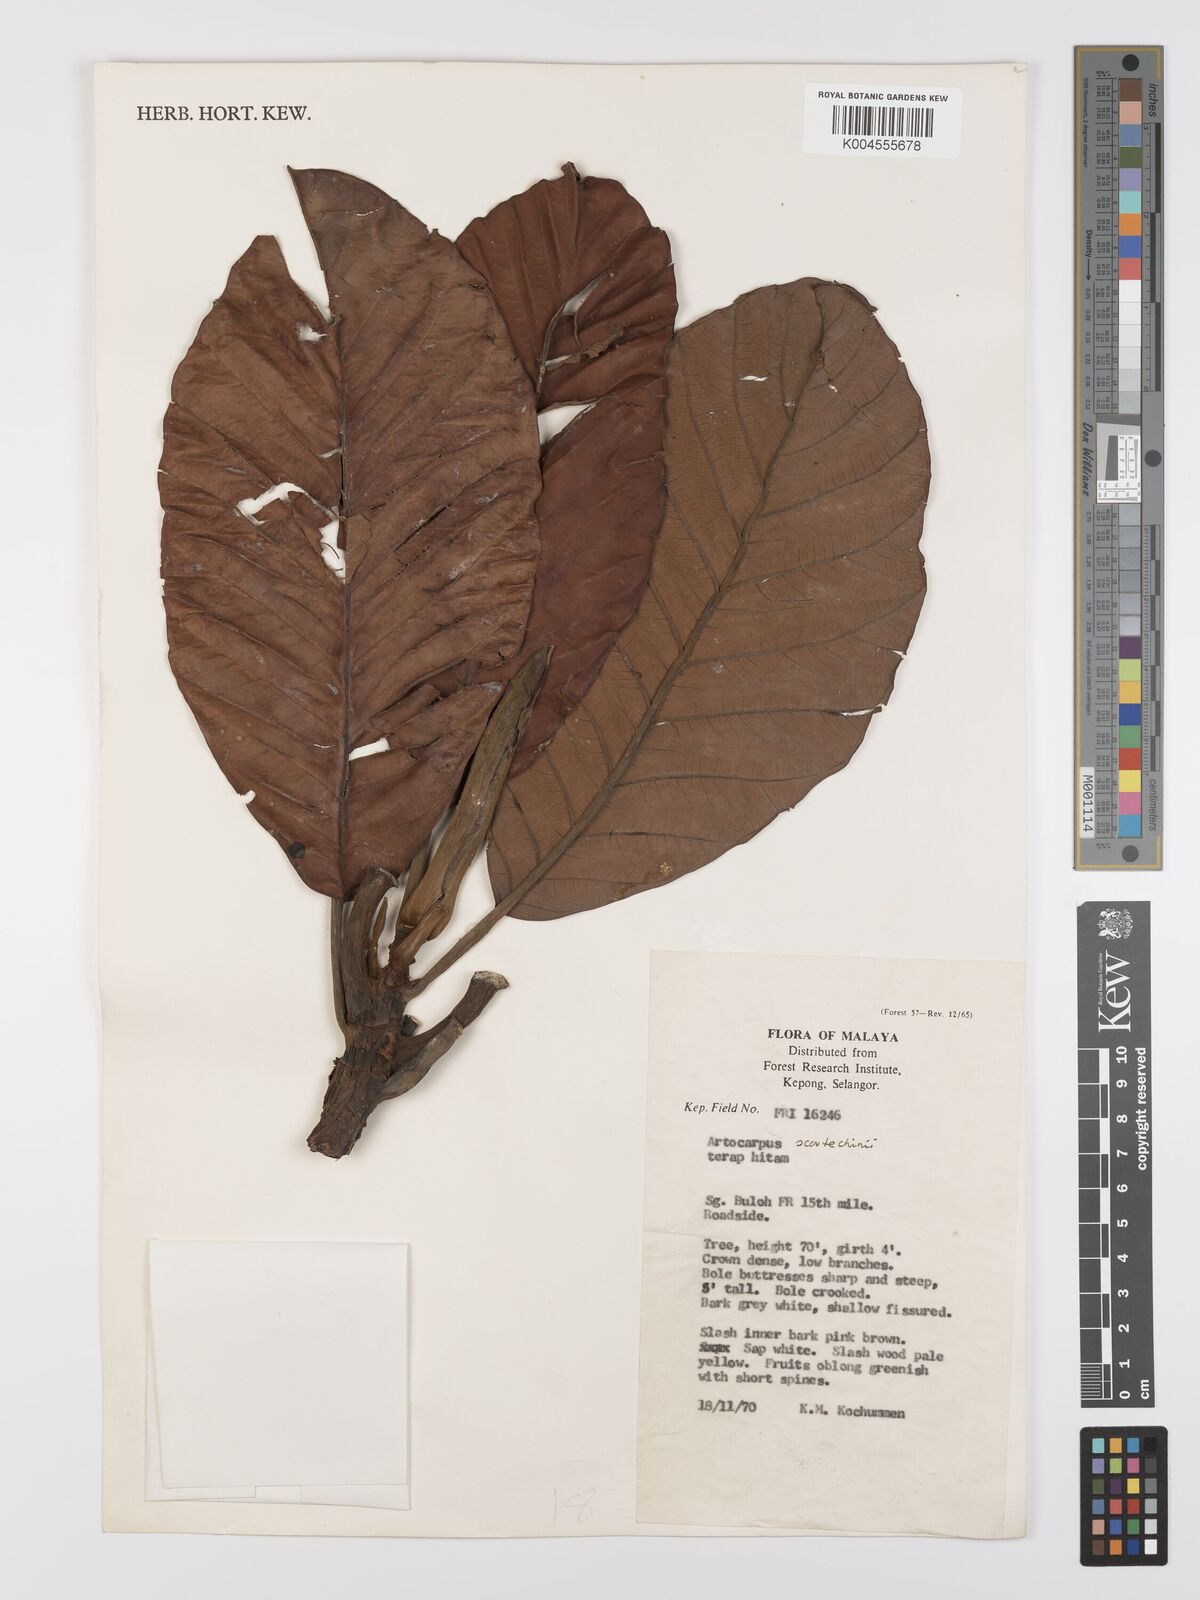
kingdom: Plantae
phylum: Tracheophyta
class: Magnoliopsida
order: Rosales
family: Moraceae
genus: Artocarpus
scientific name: Artocarpus elasticus
